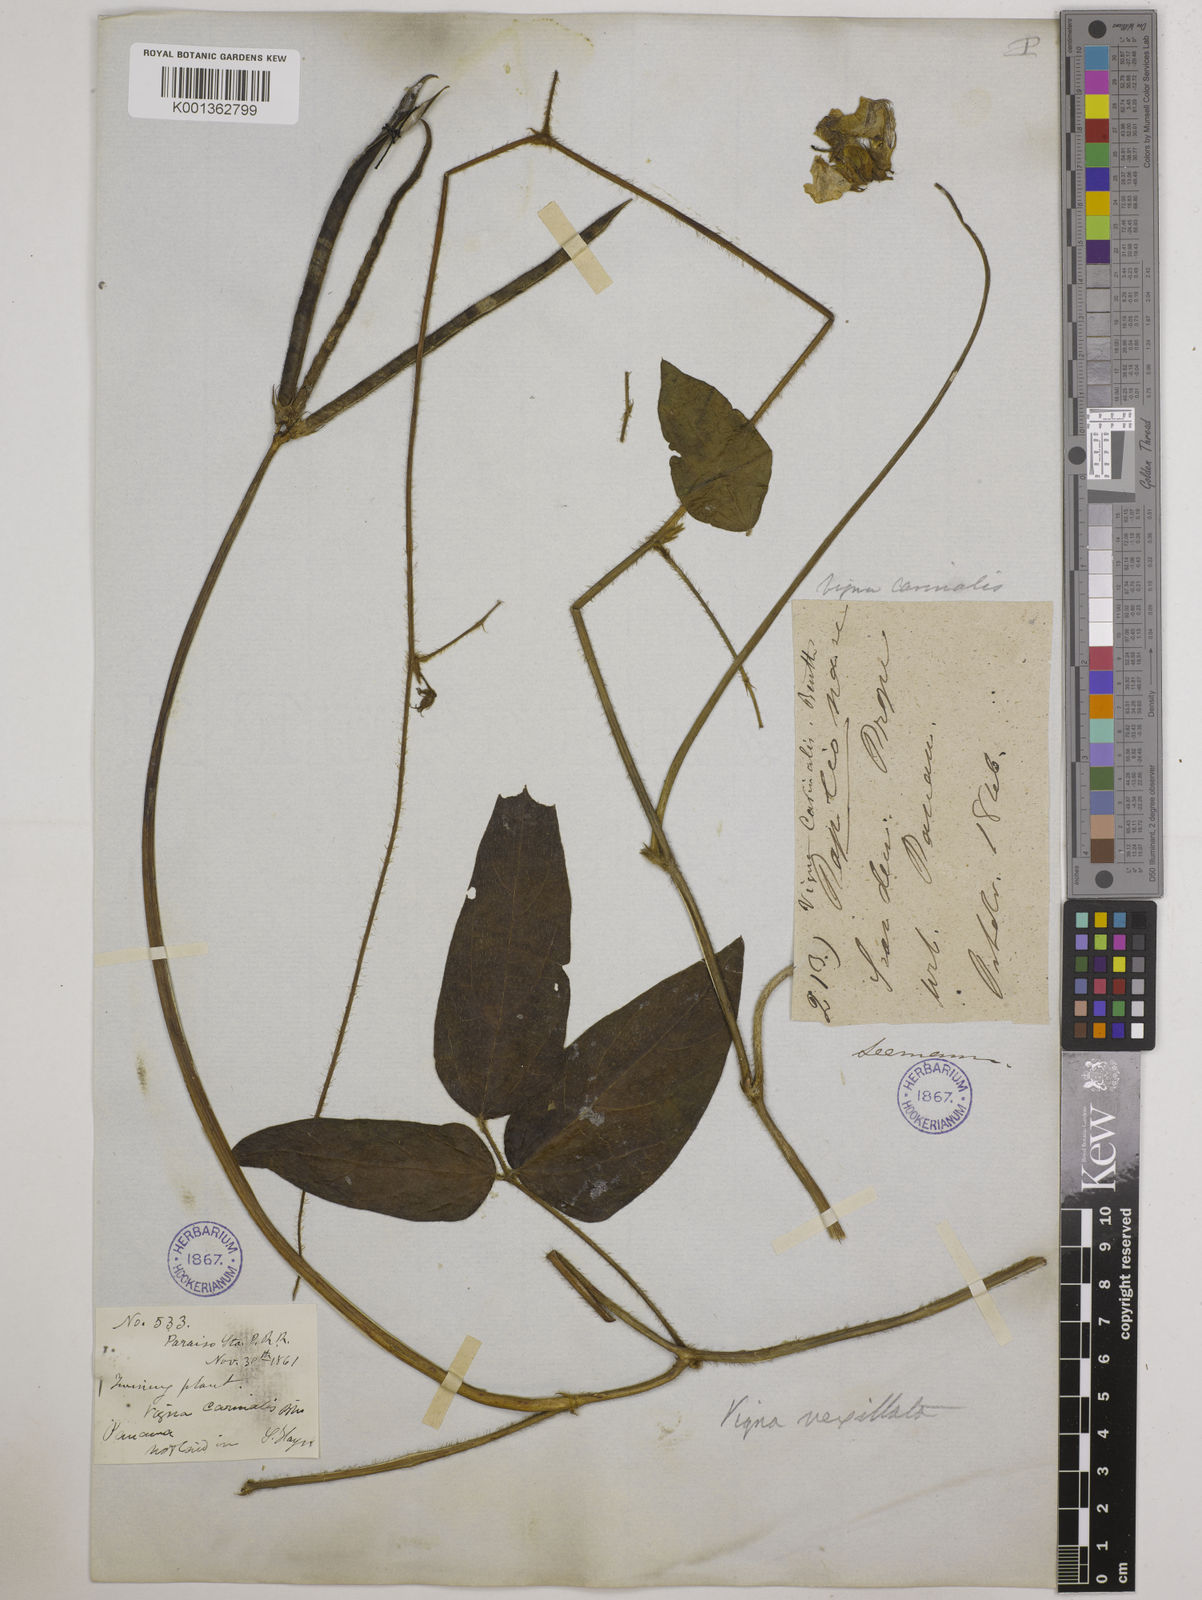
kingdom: Plantae
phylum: Tracheophyta
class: Magnoliopsida
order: Fabales
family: Fabaceae
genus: Vigna
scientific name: Vigna vexillata
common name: Zombi pea
